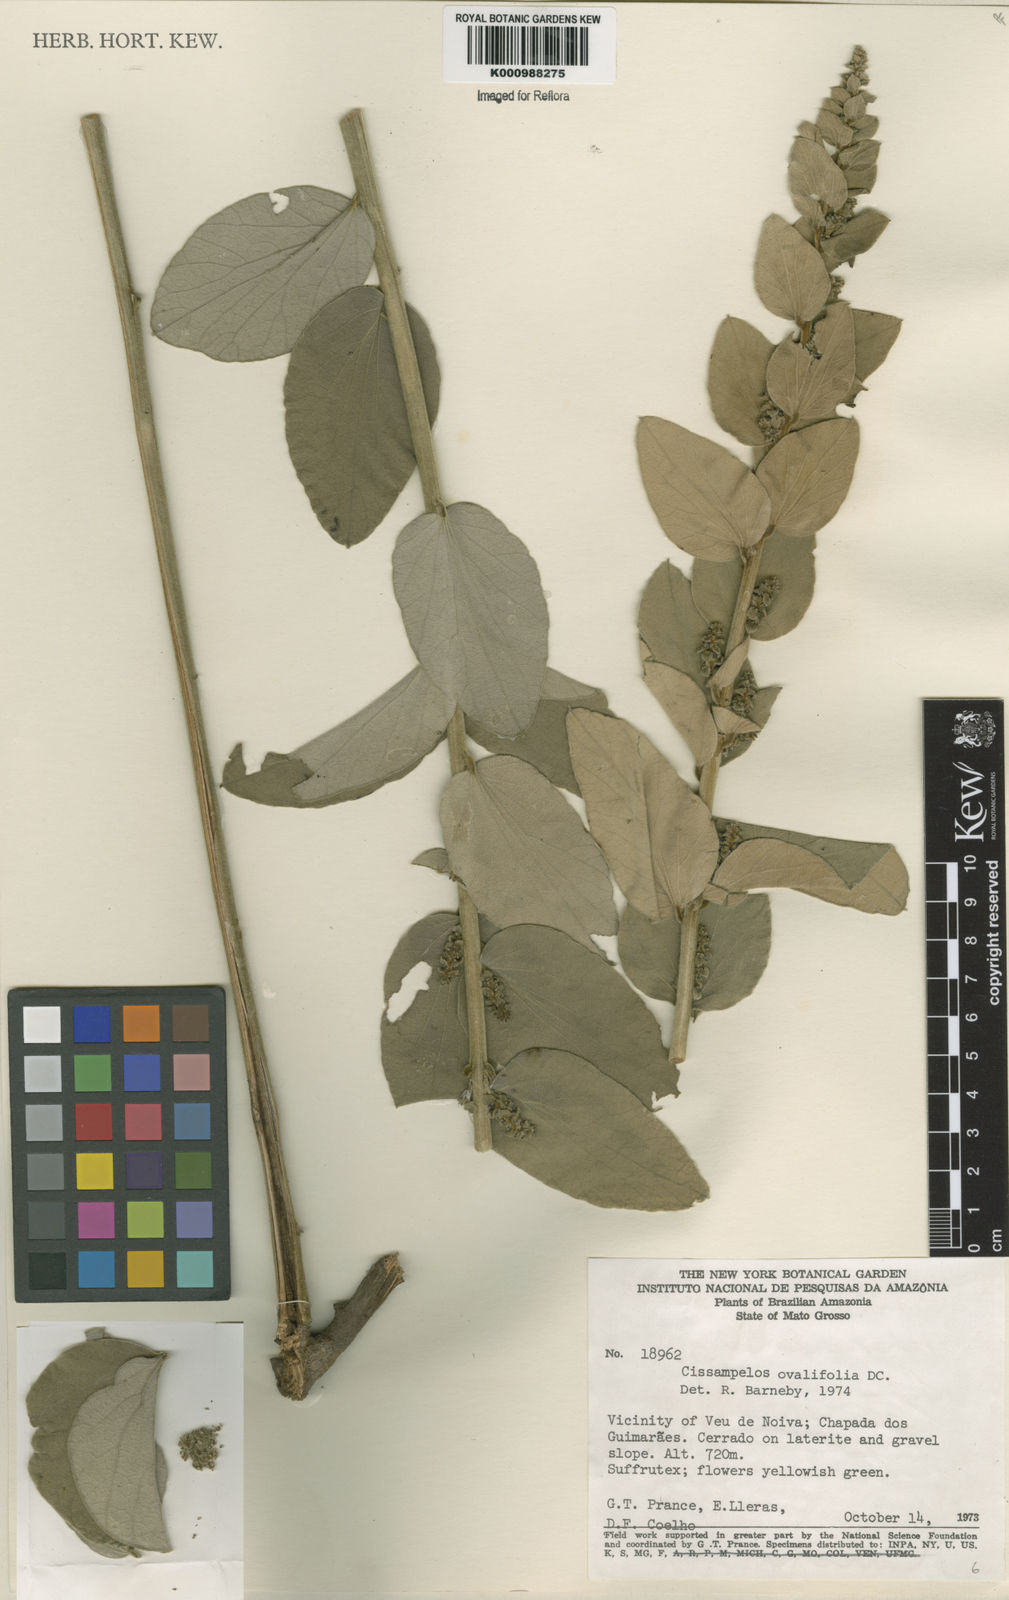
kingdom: Plantae
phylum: Tracheophyta
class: Magnoliopsida
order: Ranunculales
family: Menispermaceae
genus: Cissampelos
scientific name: Cissampelos ovalifolia
